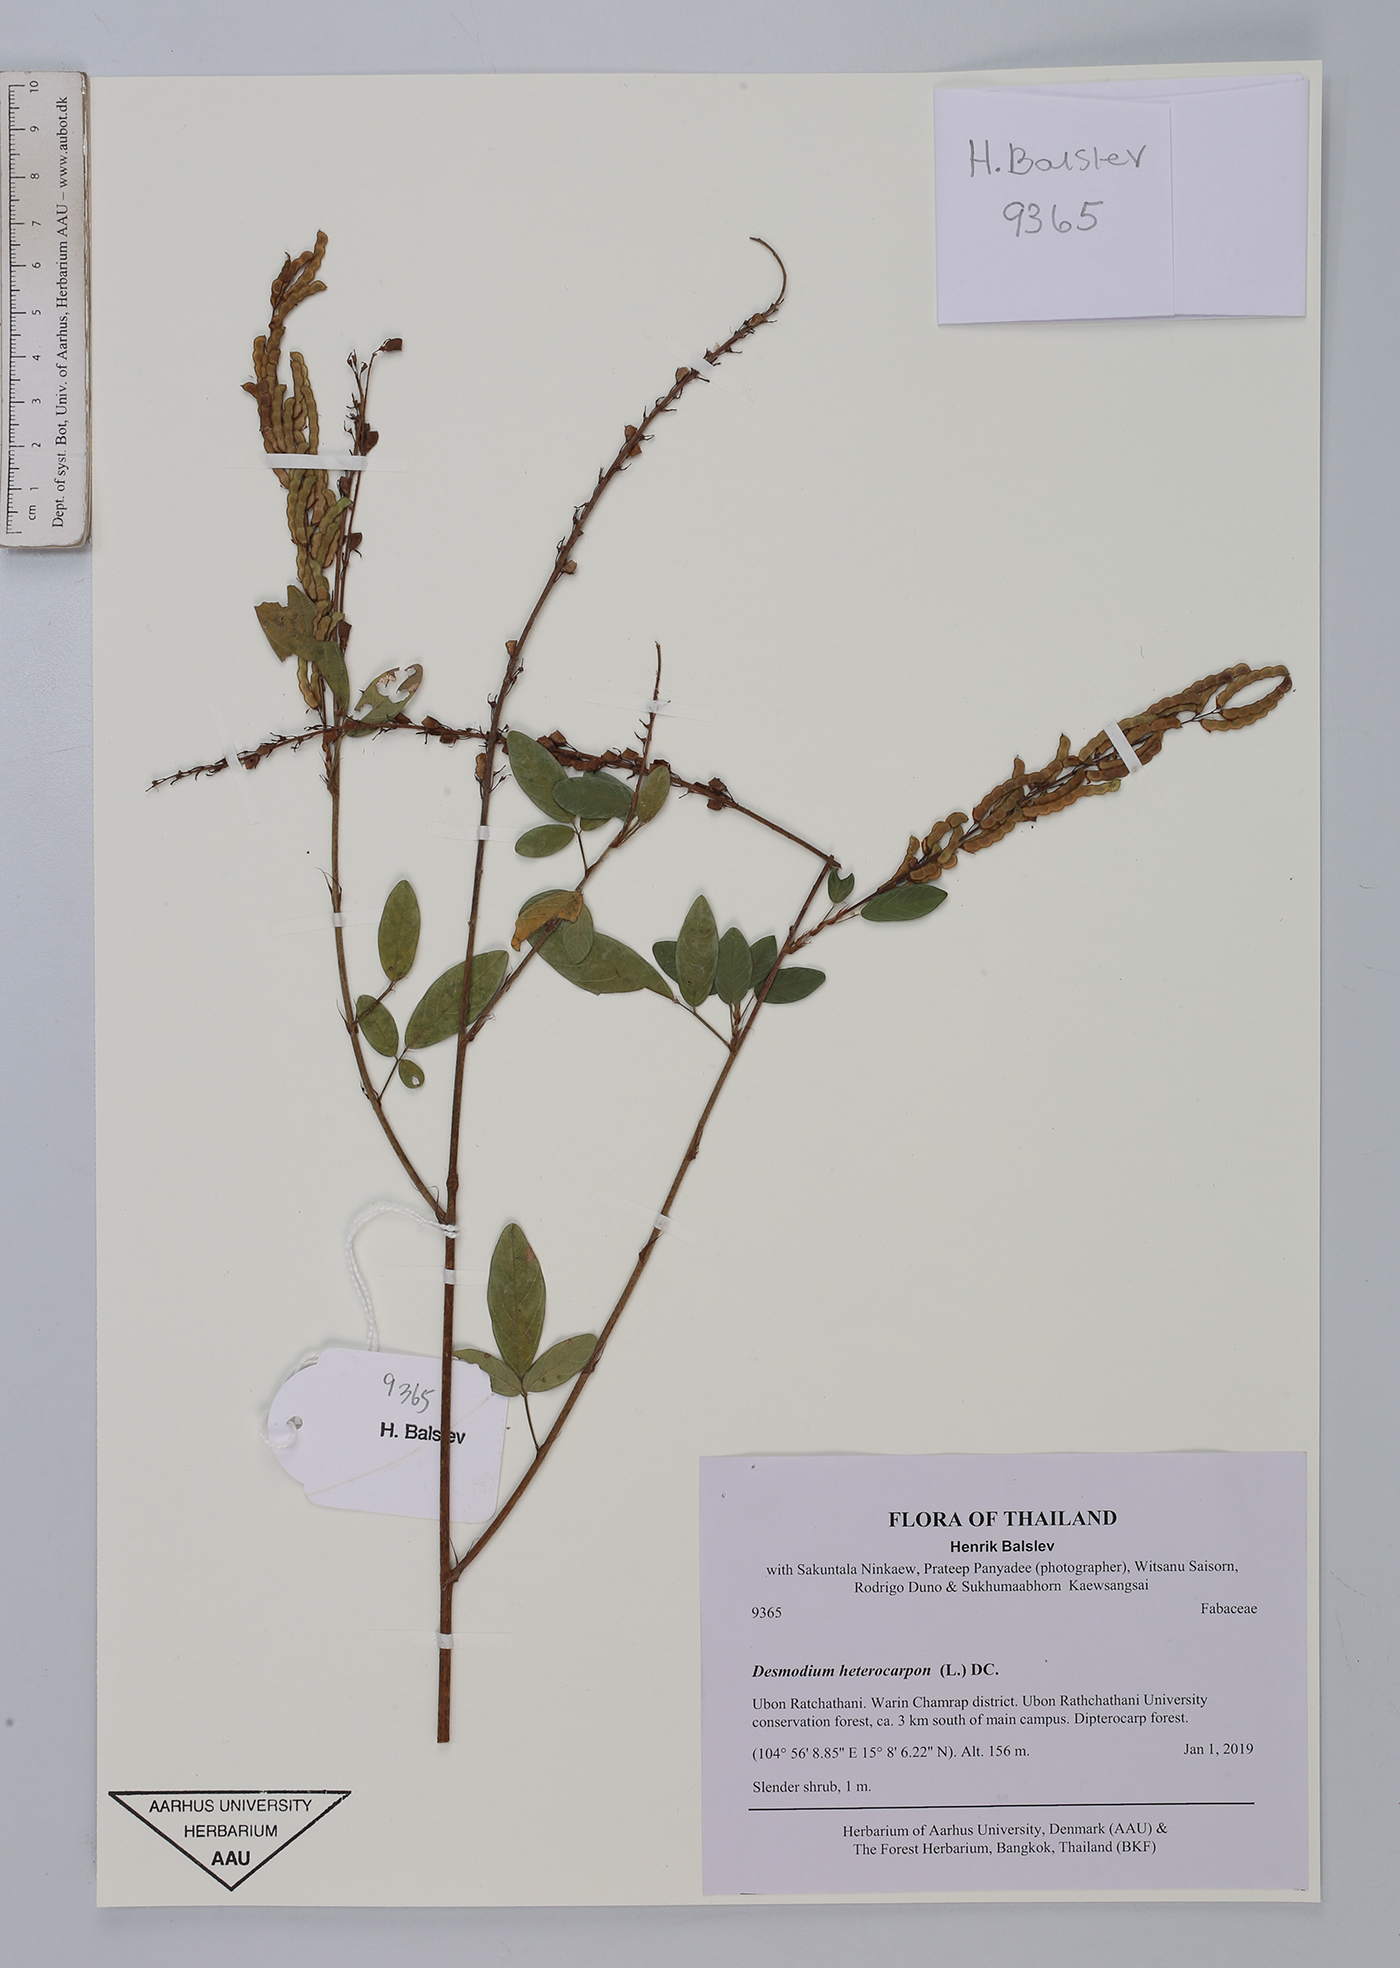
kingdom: Plantae
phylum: Tracheophyta
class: Magnoliopsida
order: Fabales
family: Fabaceae
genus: Grona
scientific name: Grona heterocarpos
